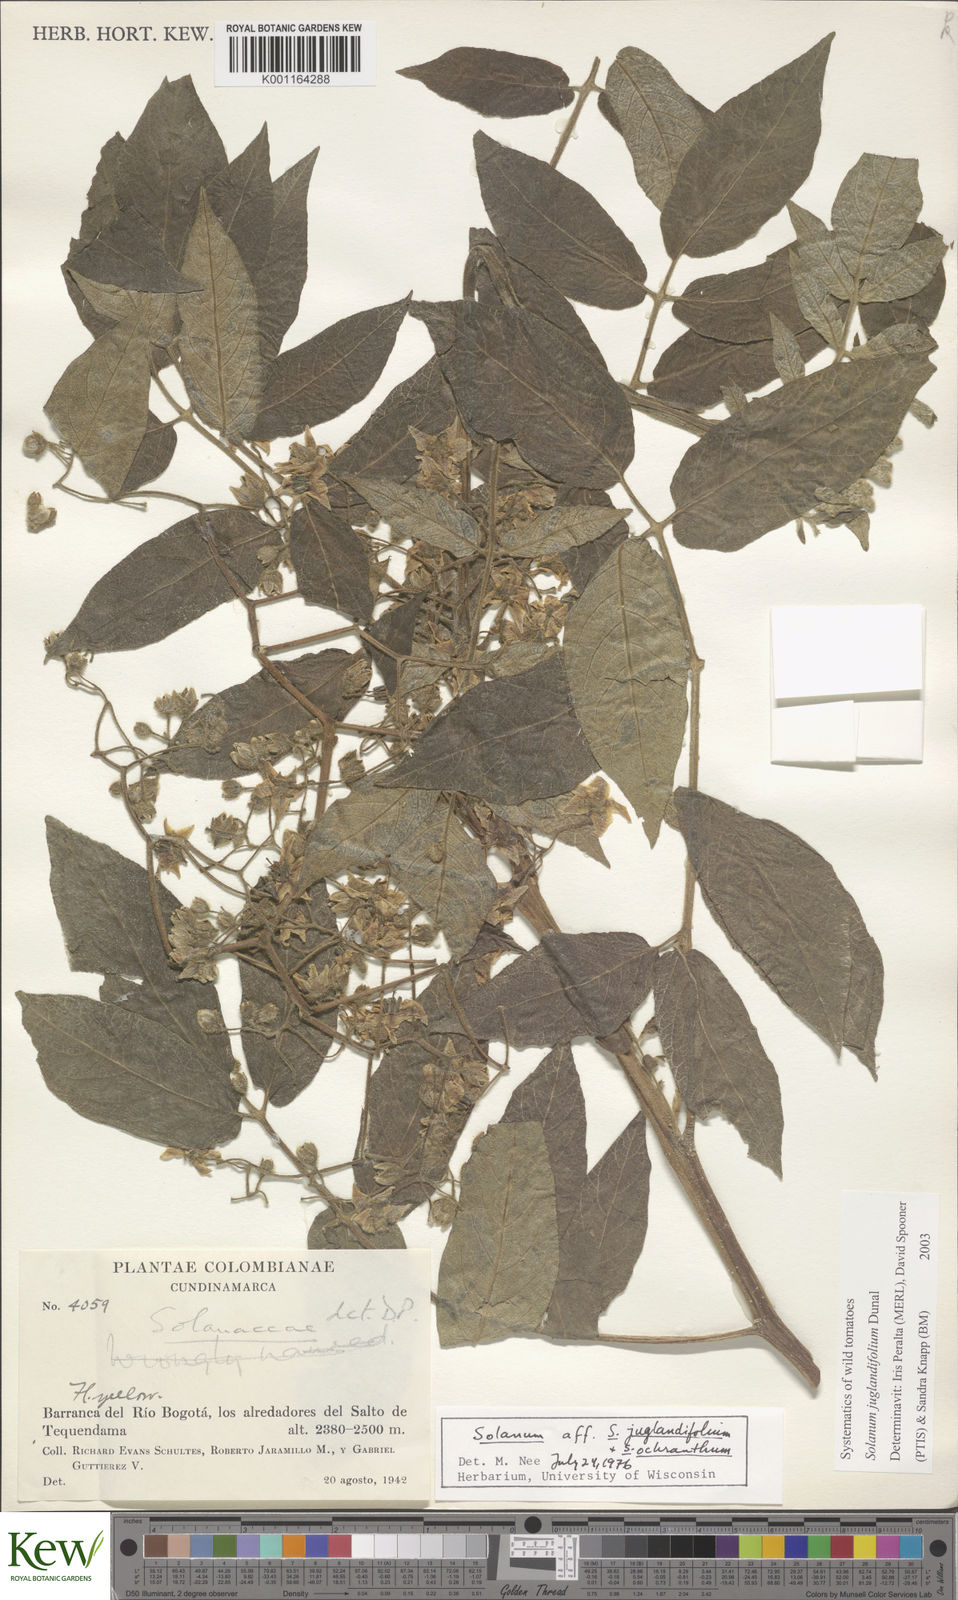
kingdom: Plantae
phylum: Tracheophyta
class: Magnoliopsida
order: Solanales
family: Solanaceae
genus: Solanum
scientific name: Solanum juglandifolium
